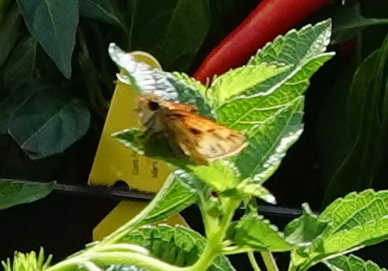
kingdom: Animalia
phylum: Arthropoda
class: Insecta
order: Lepidoptera
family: Hesperiidae
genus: Hylephila
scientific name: Hylephila phyleus
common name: Fiery Skipper
